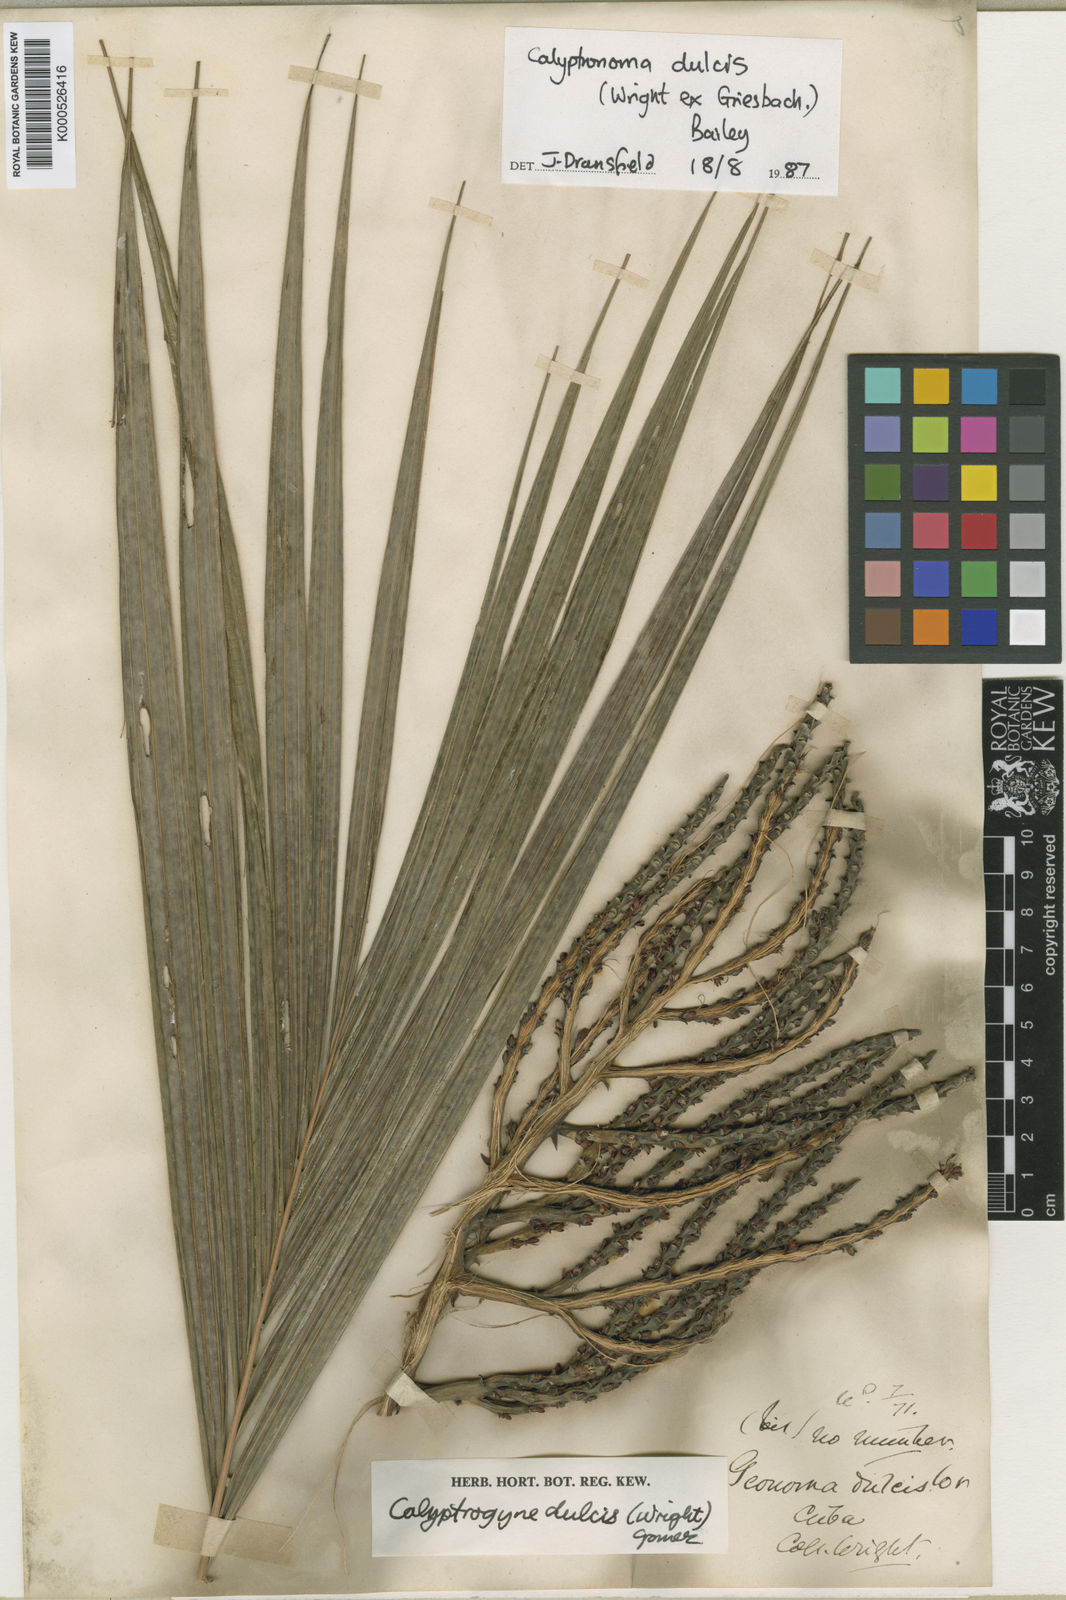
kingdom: Plantae
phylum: Tracheophyta
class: Liliopsida
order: Arecales
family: Arecaceae
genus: Calyptronoma
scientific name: Calyptronoma plumeriana
